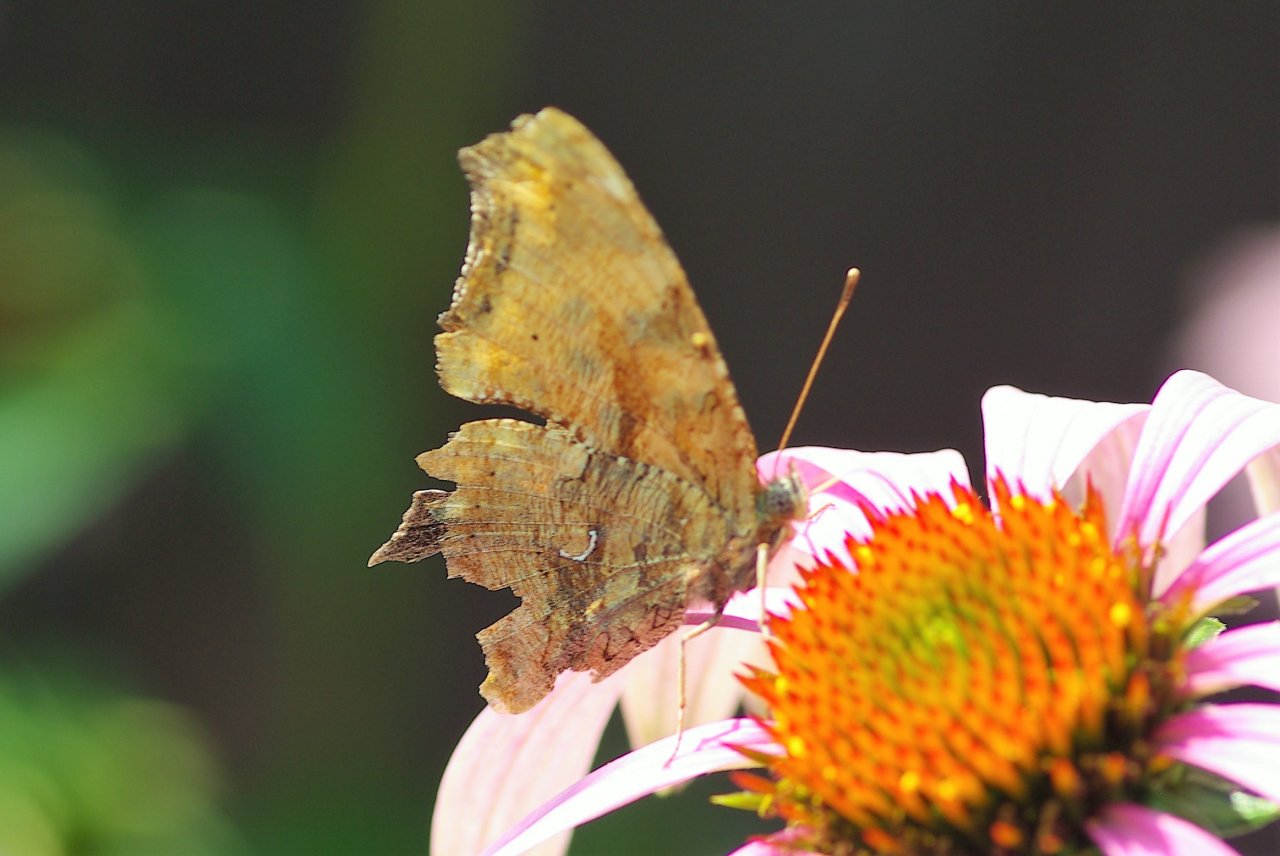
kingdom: Animalia
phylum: Arthropoda
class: Insecta
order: Lepidoptera
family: Nymphalidae
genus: Polygonia
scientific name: Polygonia comma
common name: Eastern Comma
